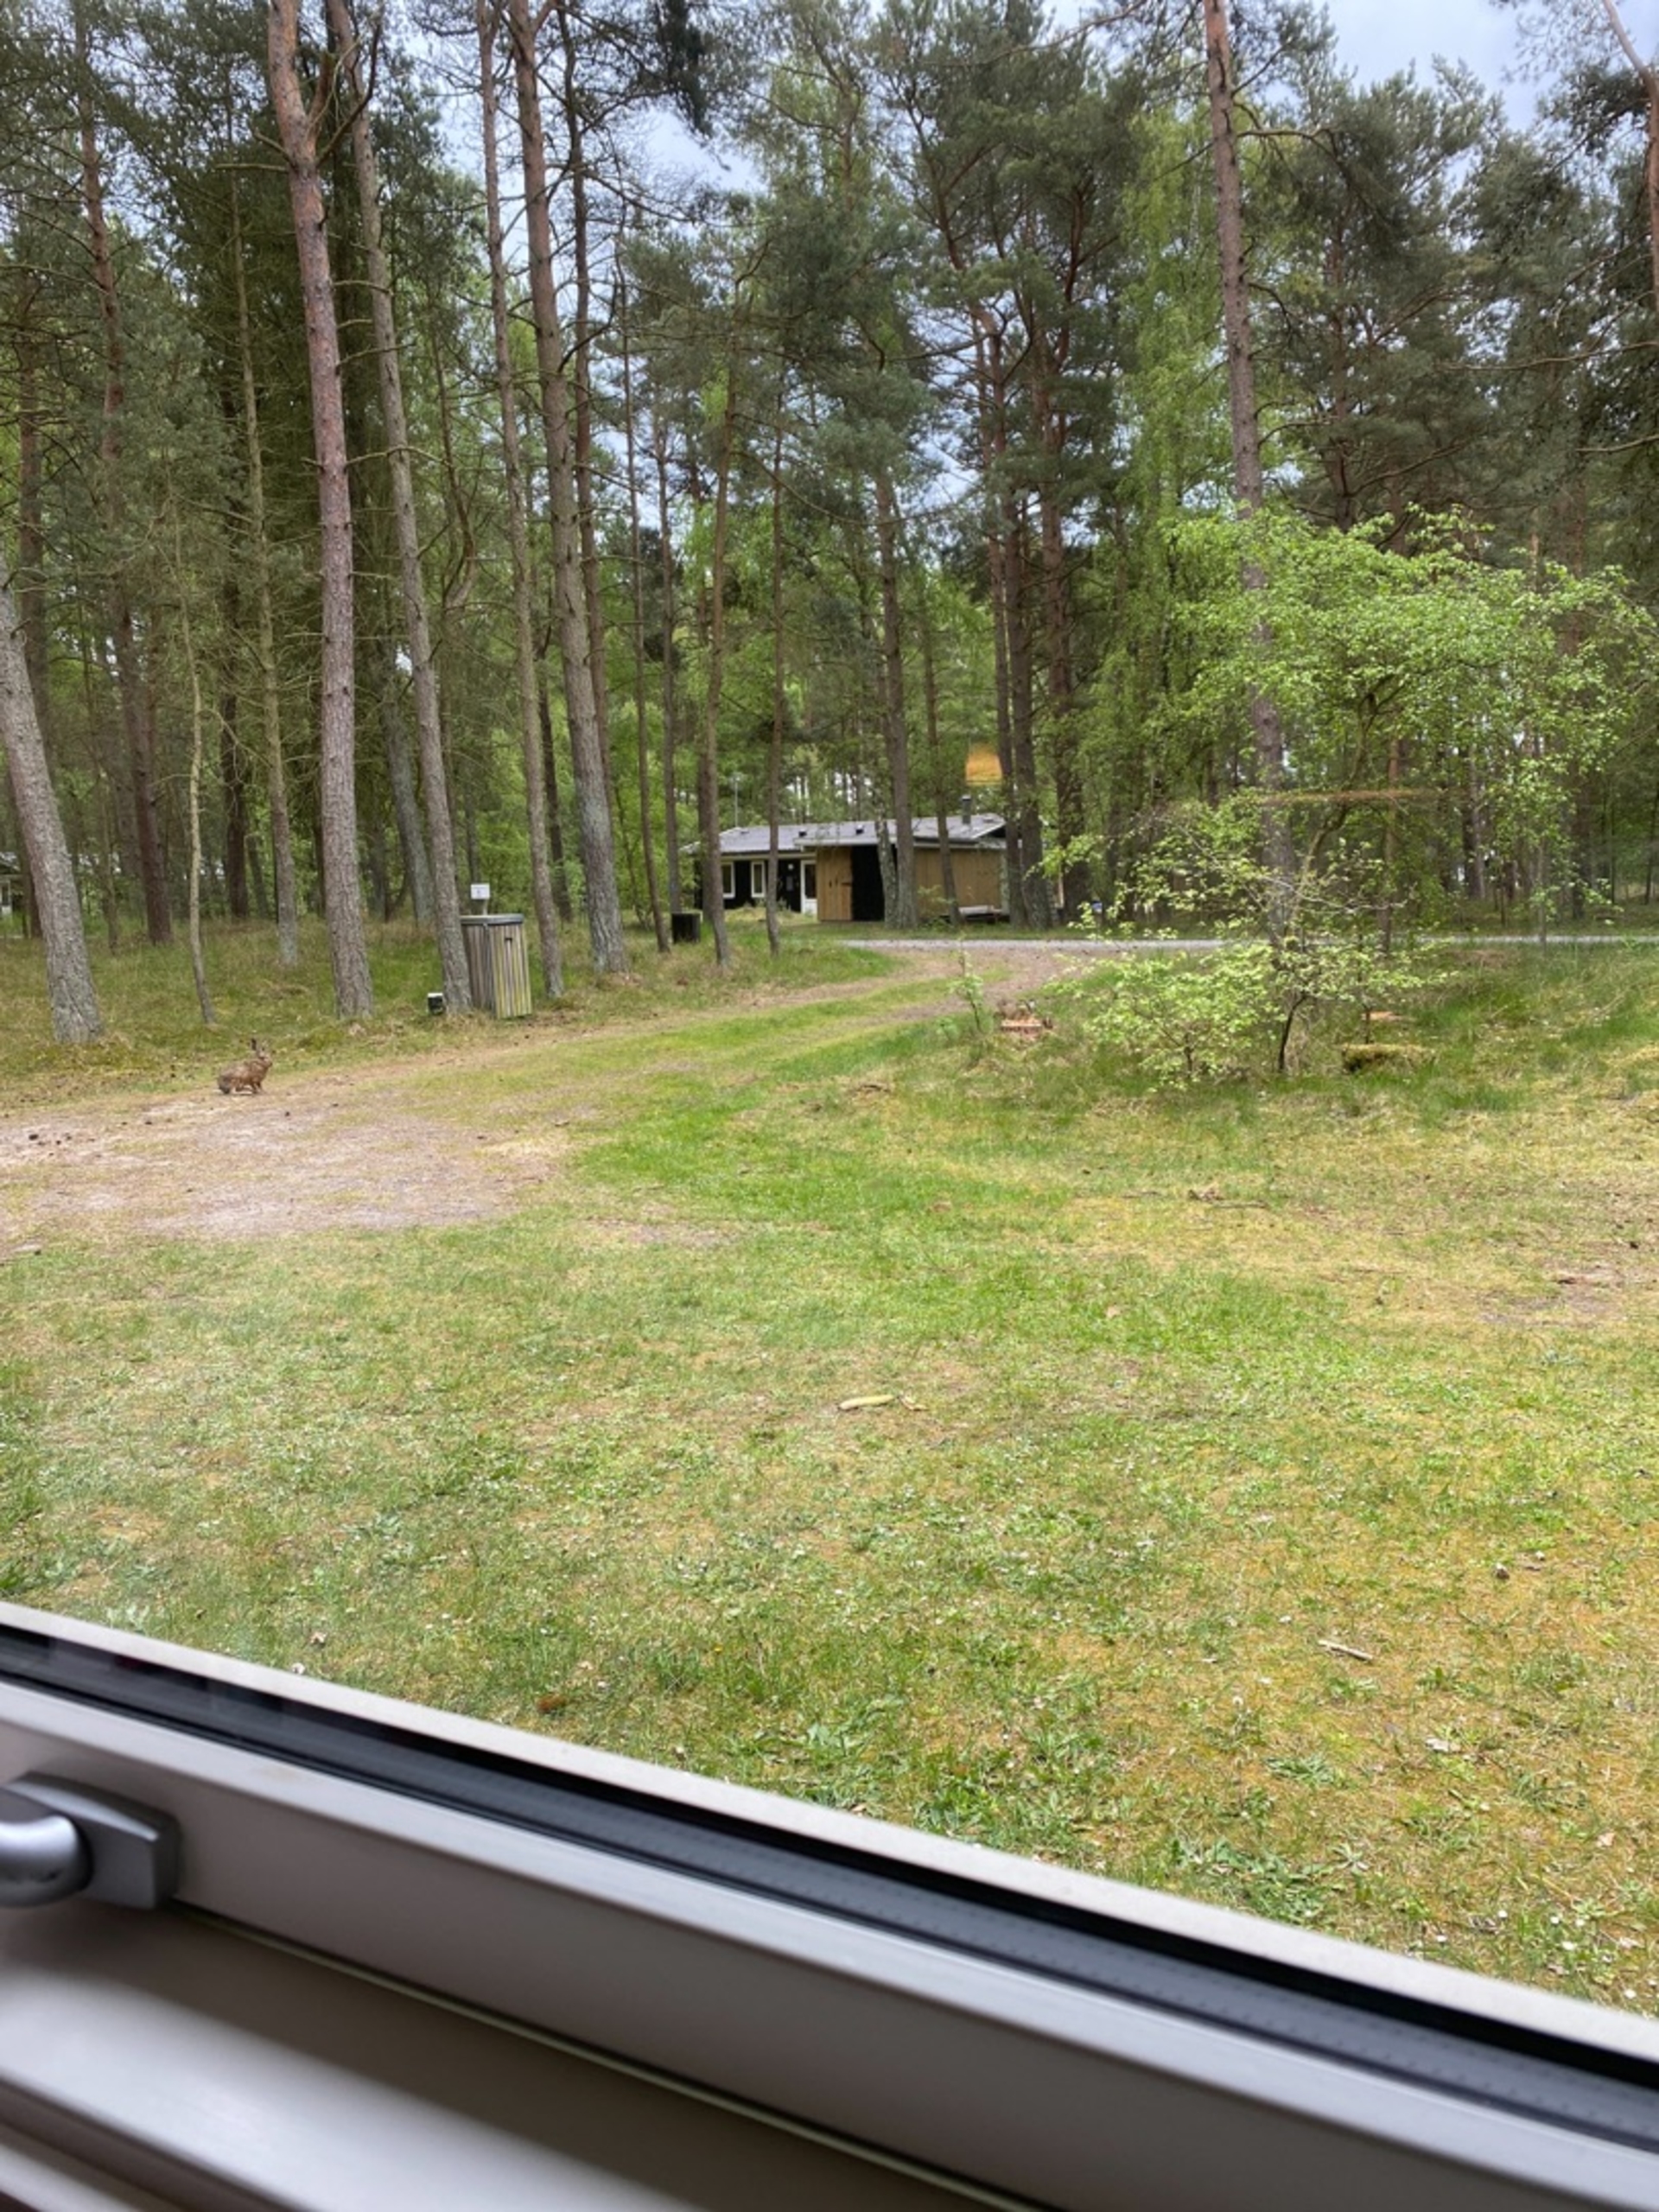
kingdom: Animalia
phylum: Chordata
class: Mammalia
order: Lagomorpha
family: Leporidae
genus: Lepus
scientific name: Lepus europaeus
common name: Hare
